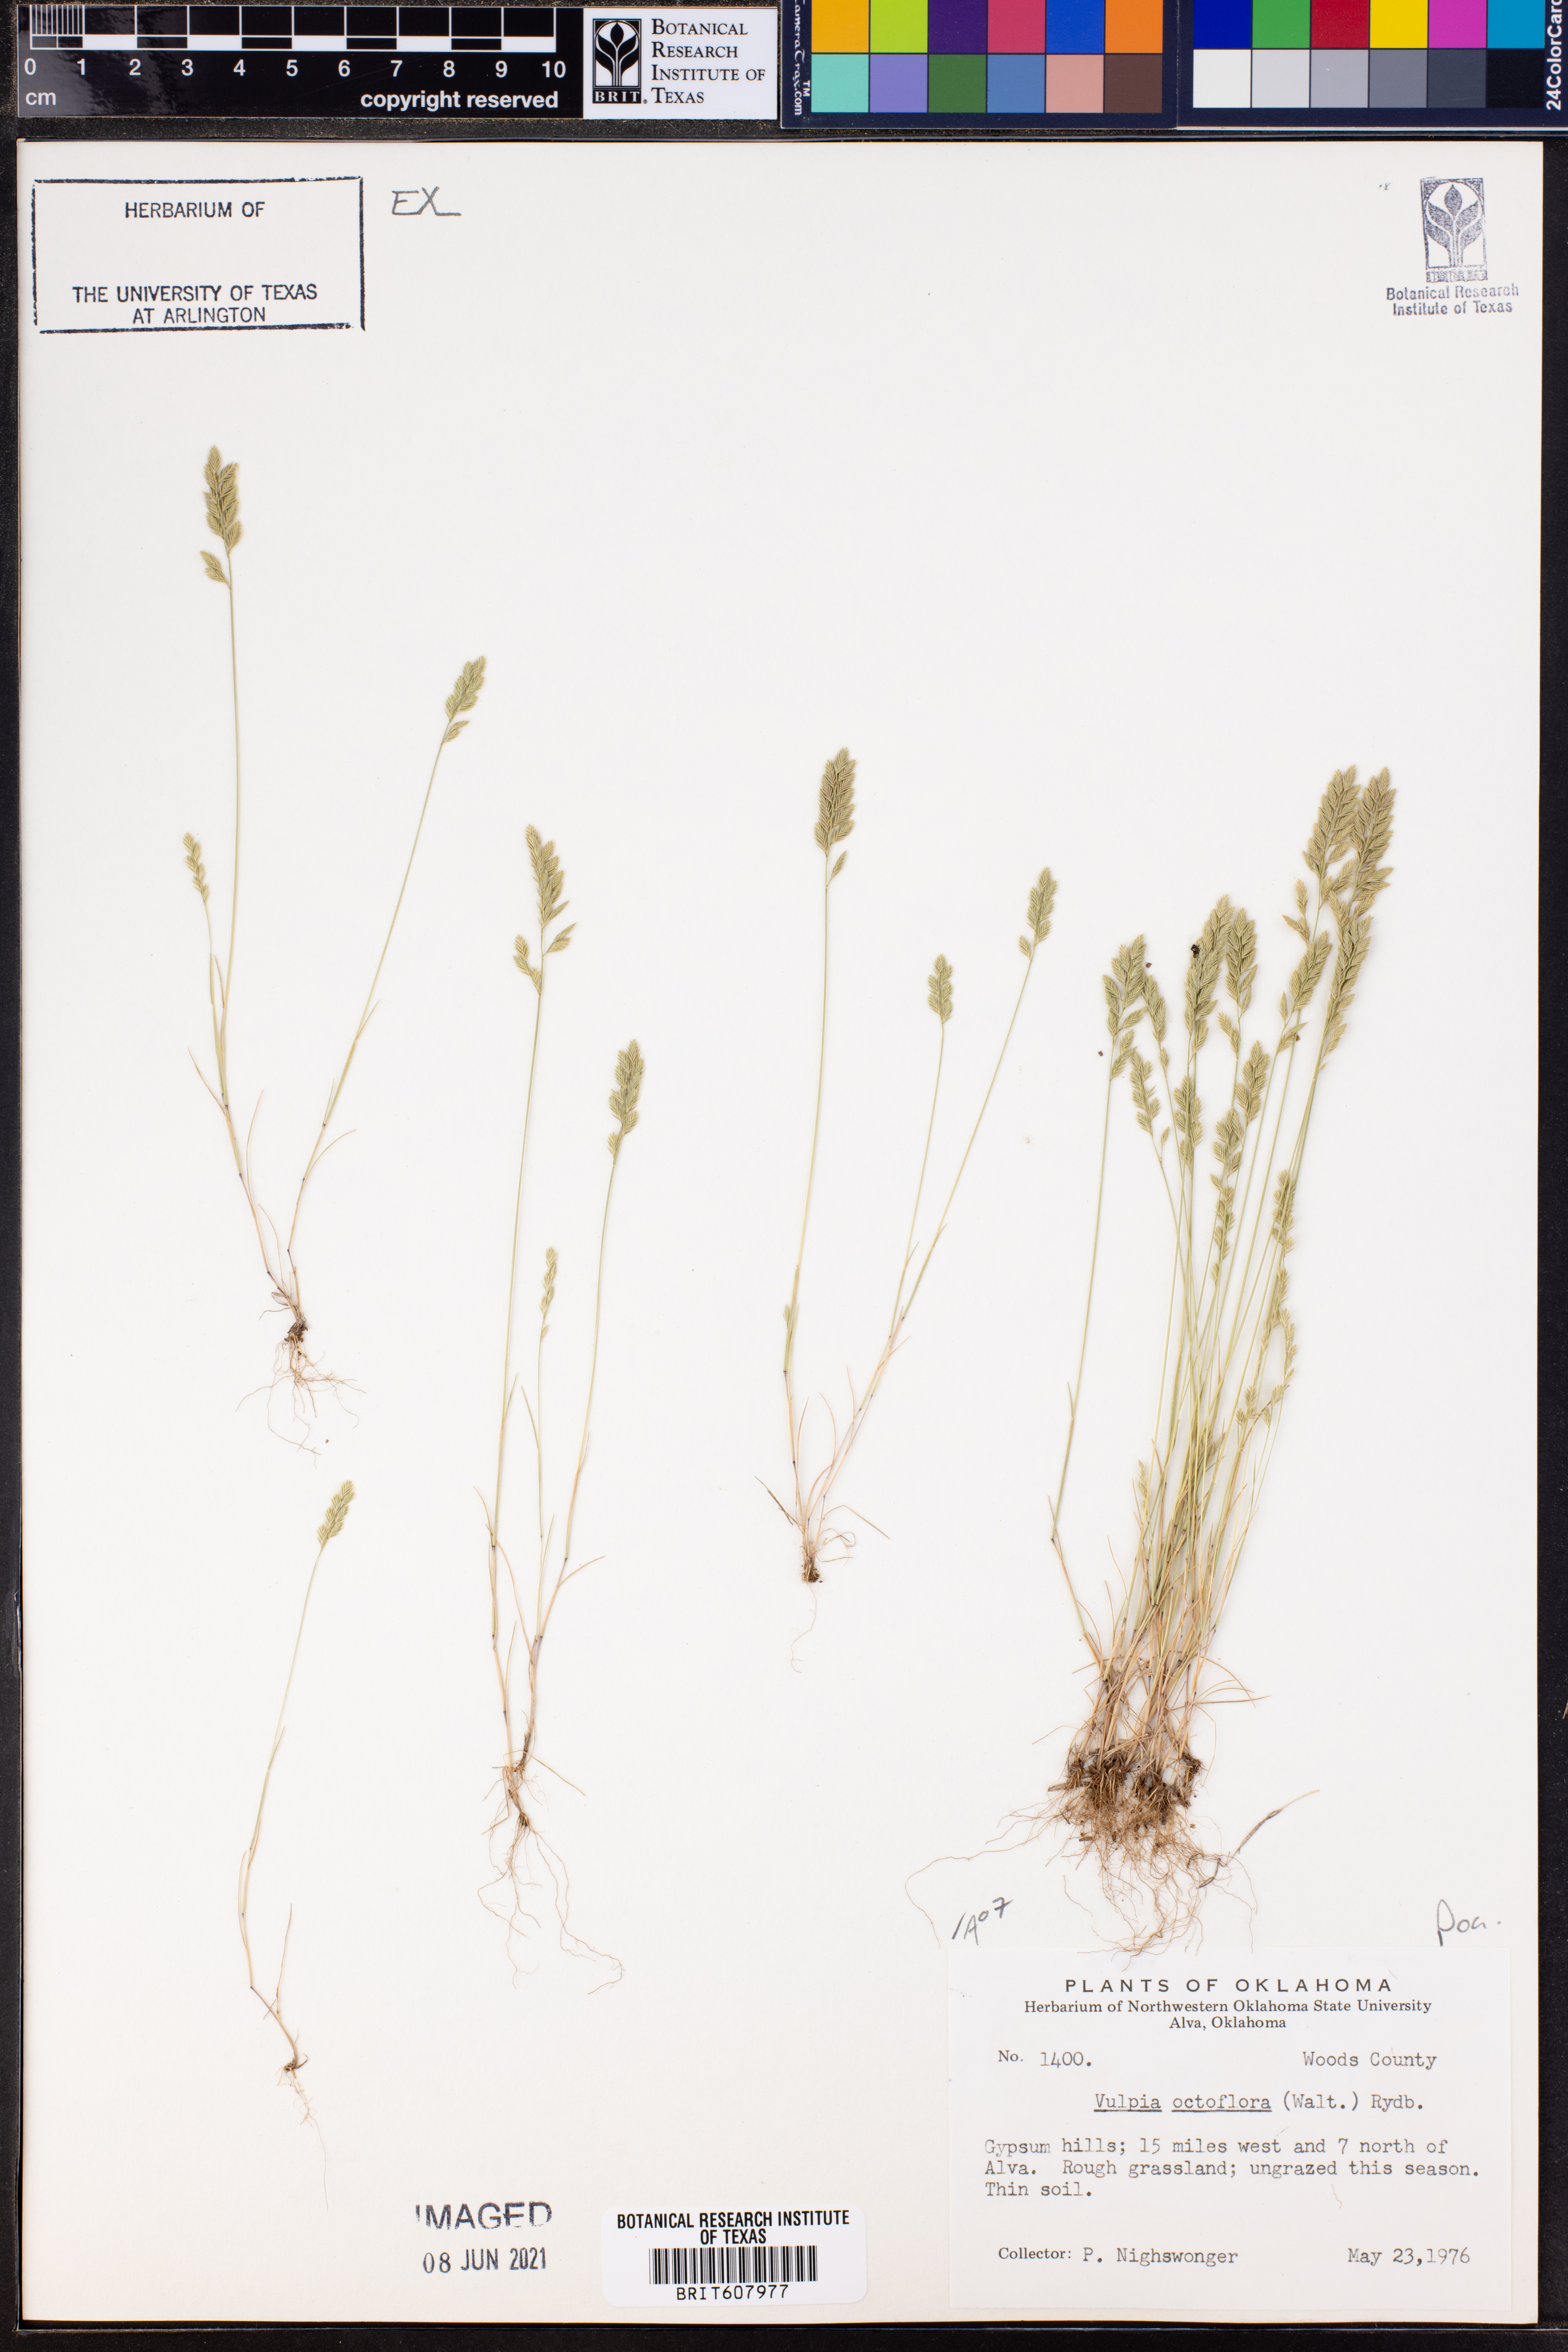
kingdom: Plantae
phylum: Tracheophyta
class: Liliopsida
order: Poales
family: Poaceae
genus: Festuca
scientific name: Festuca octoflora
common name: Sixweeks grass
